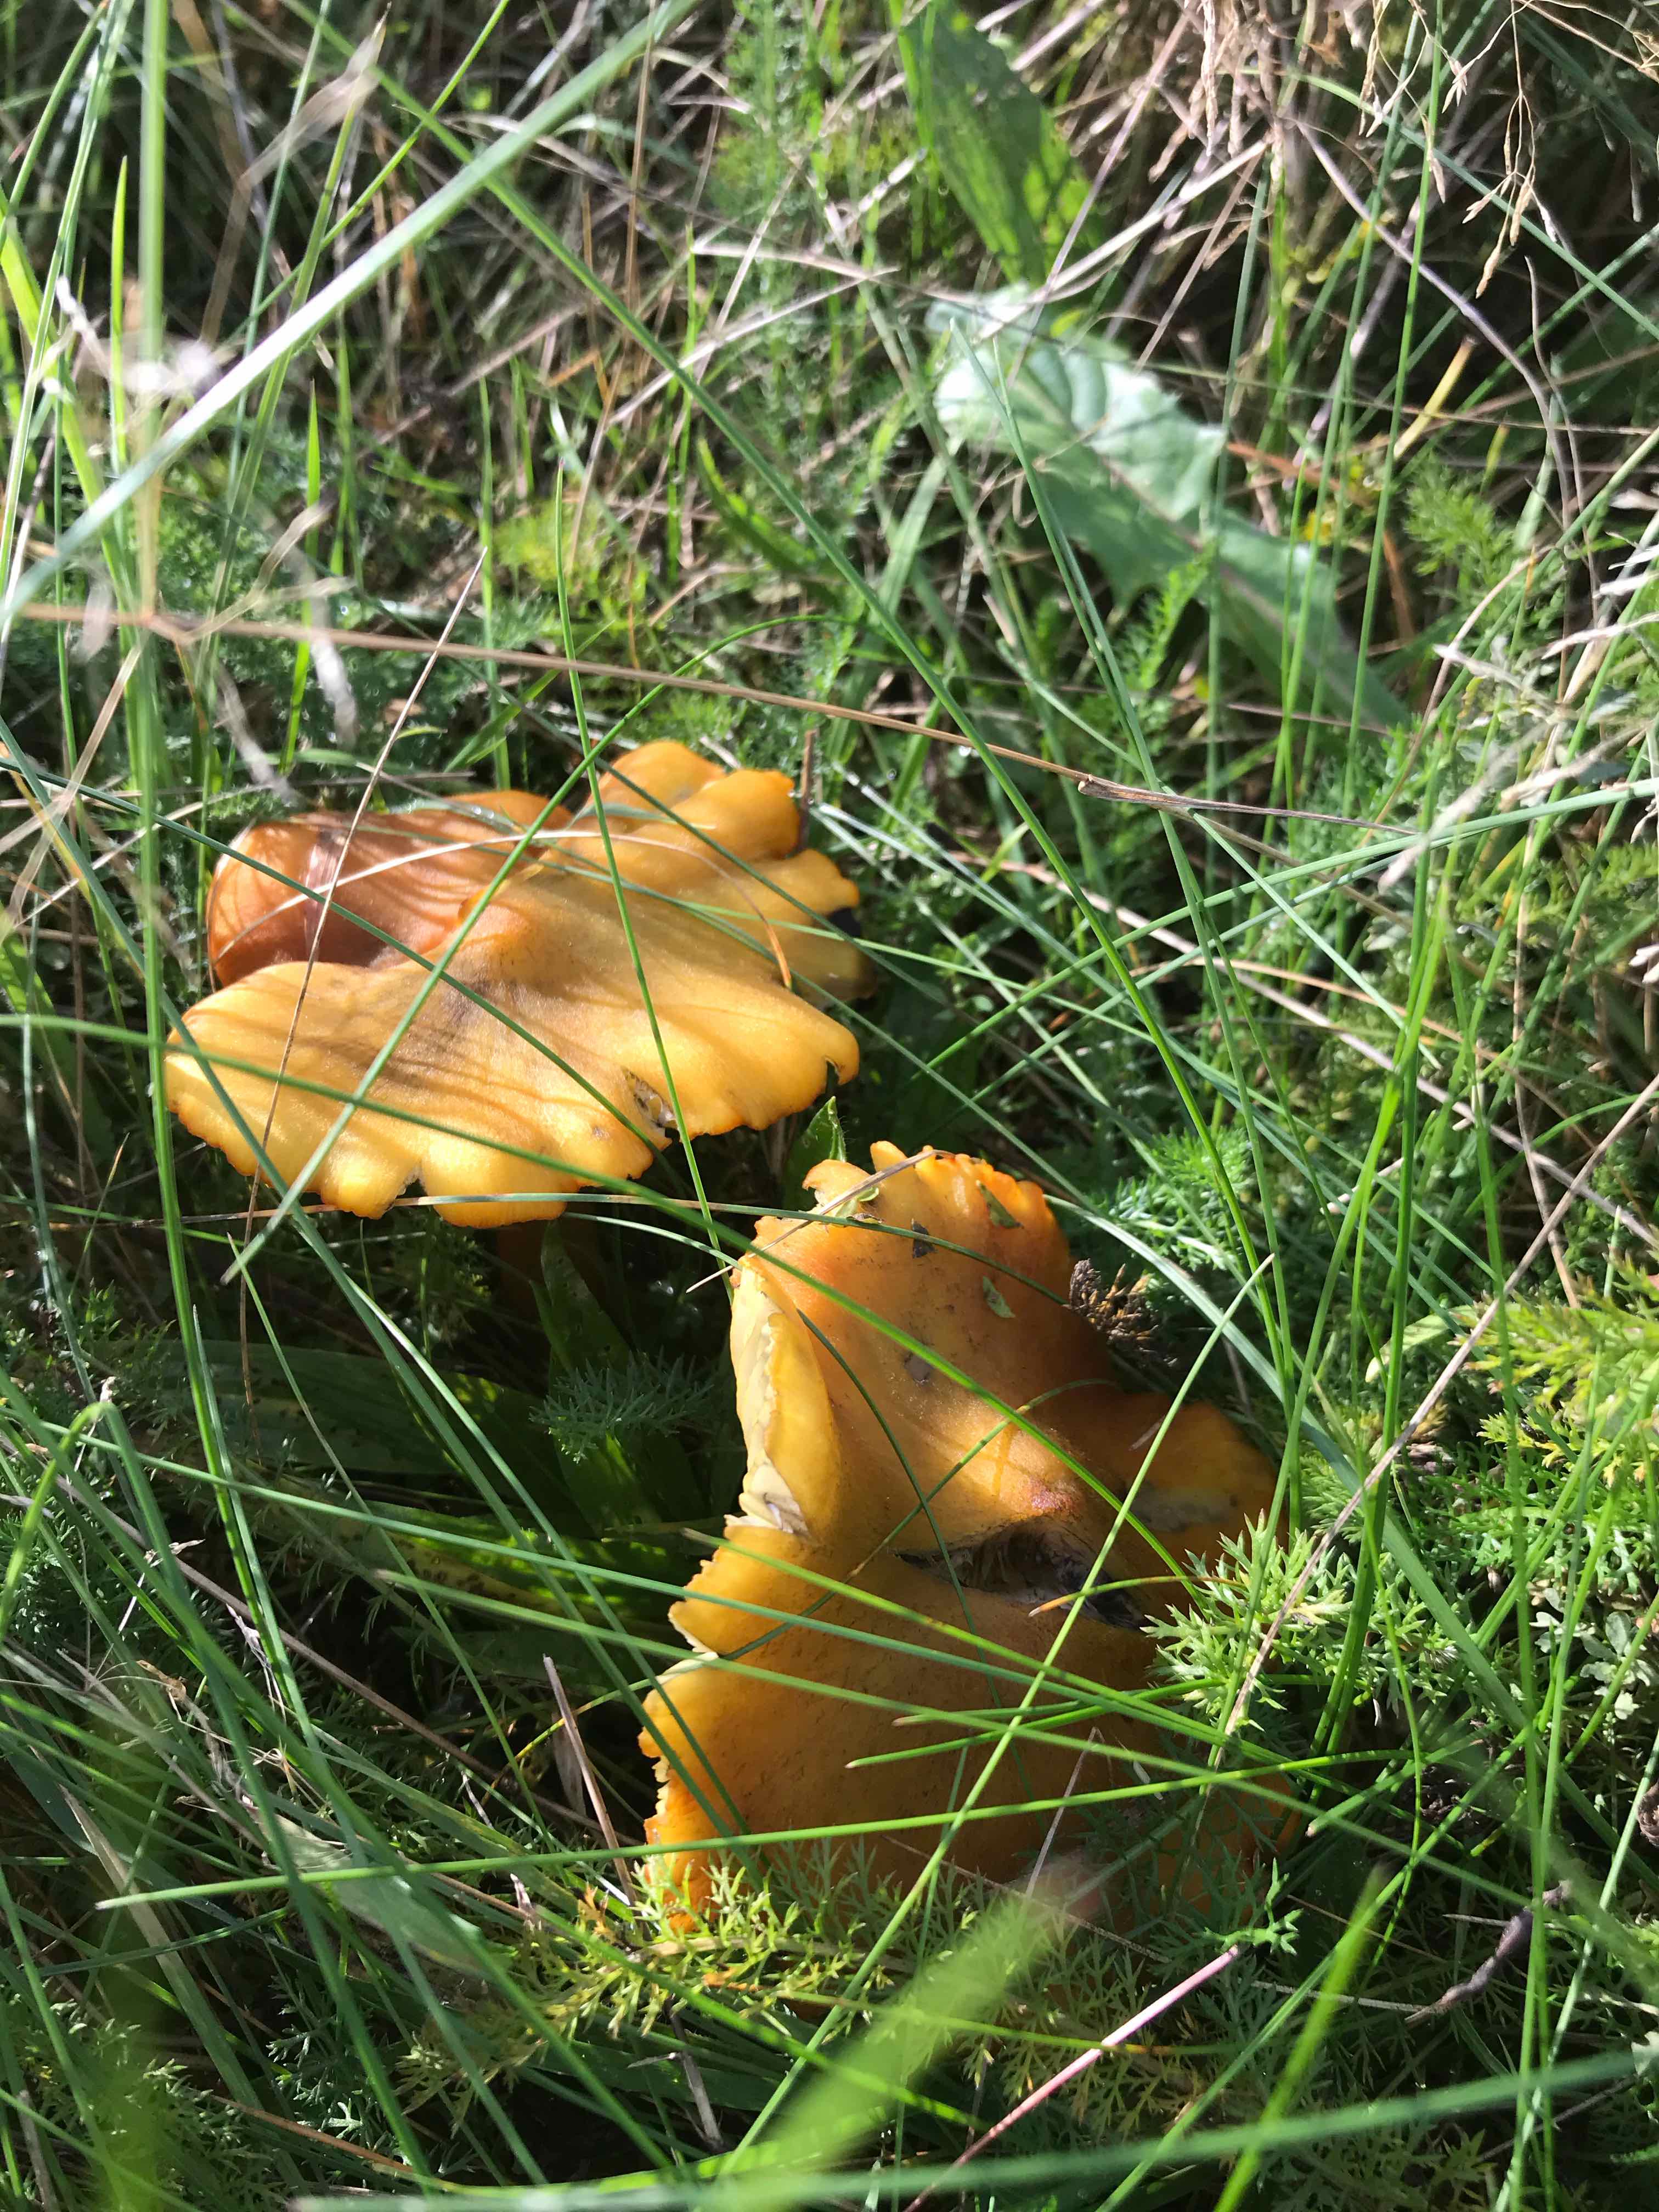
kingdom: Fungi
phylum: Basidiomycota
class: Agaricomycetes
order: Agaricales
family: Hygrophoraceae
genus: Hygrocybe
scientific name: Hygrocybe
